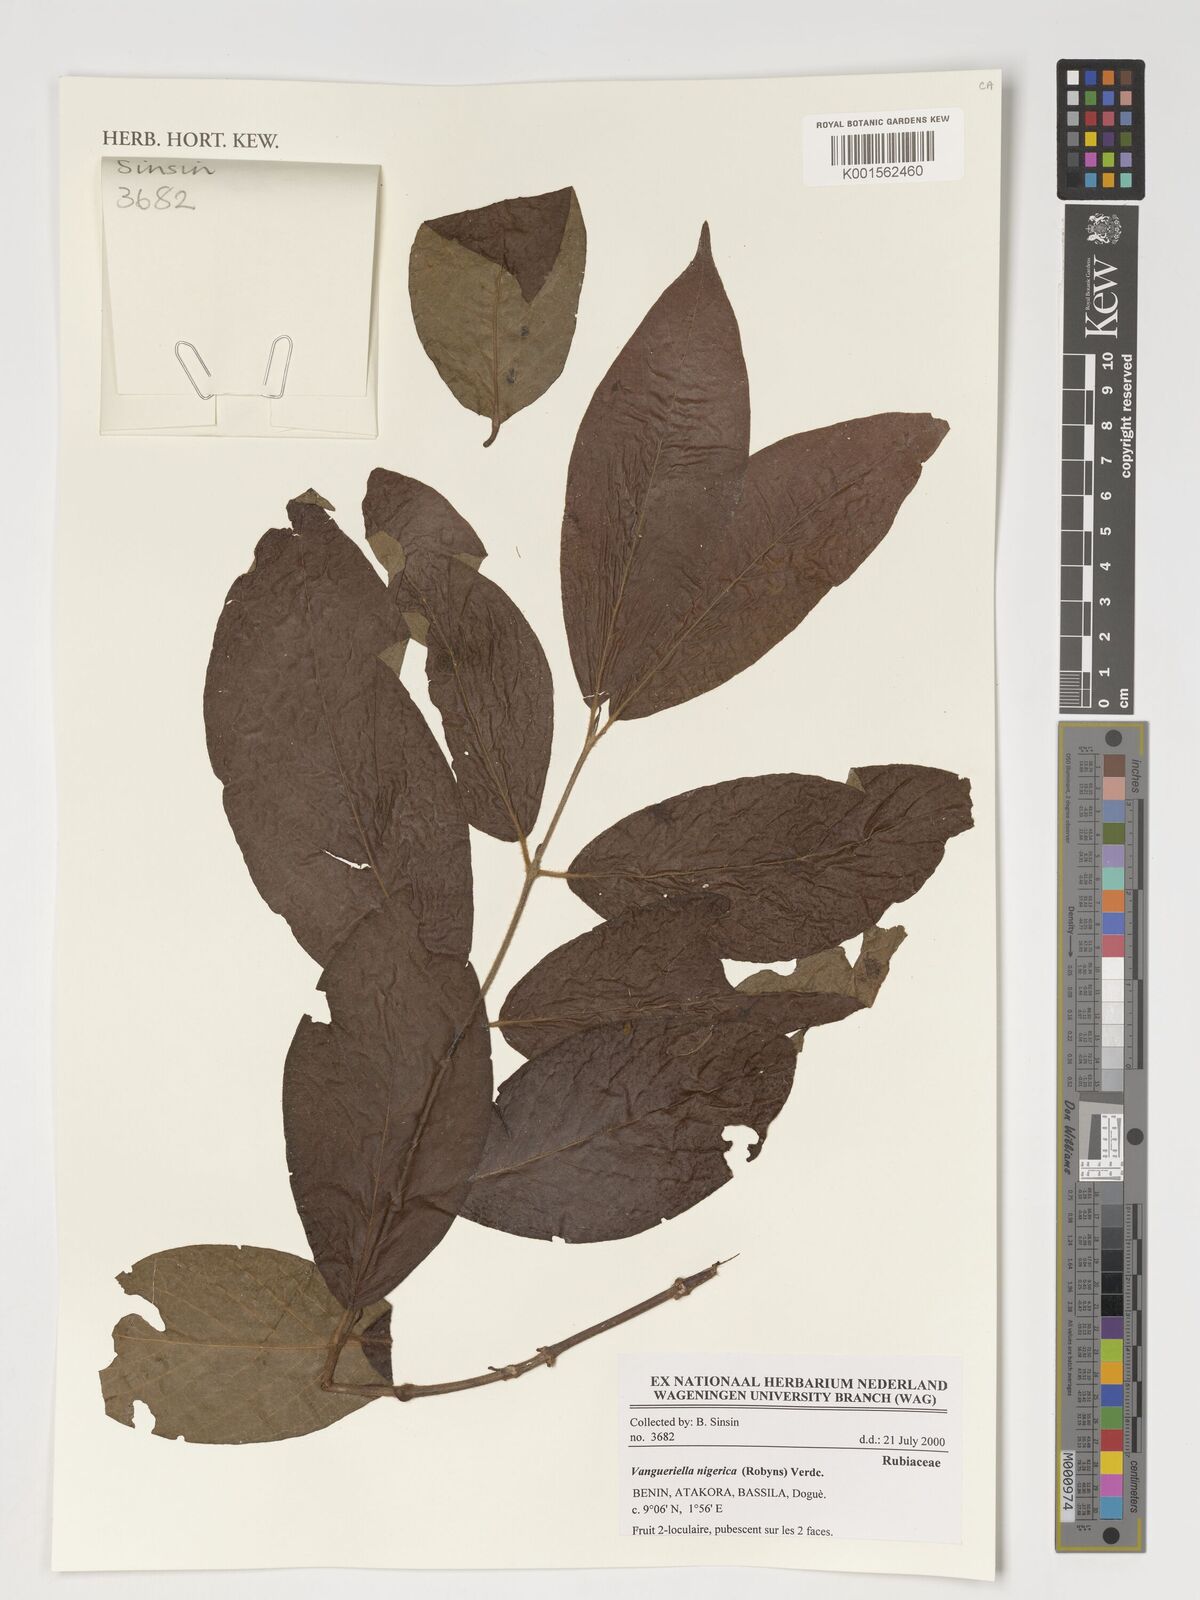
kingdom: Plantae
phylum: Tracheophyta
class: Magnoliopsida
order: Gentianales
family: Rubiaceae
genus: Vangueriella
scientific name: Vangueriella nigerica
